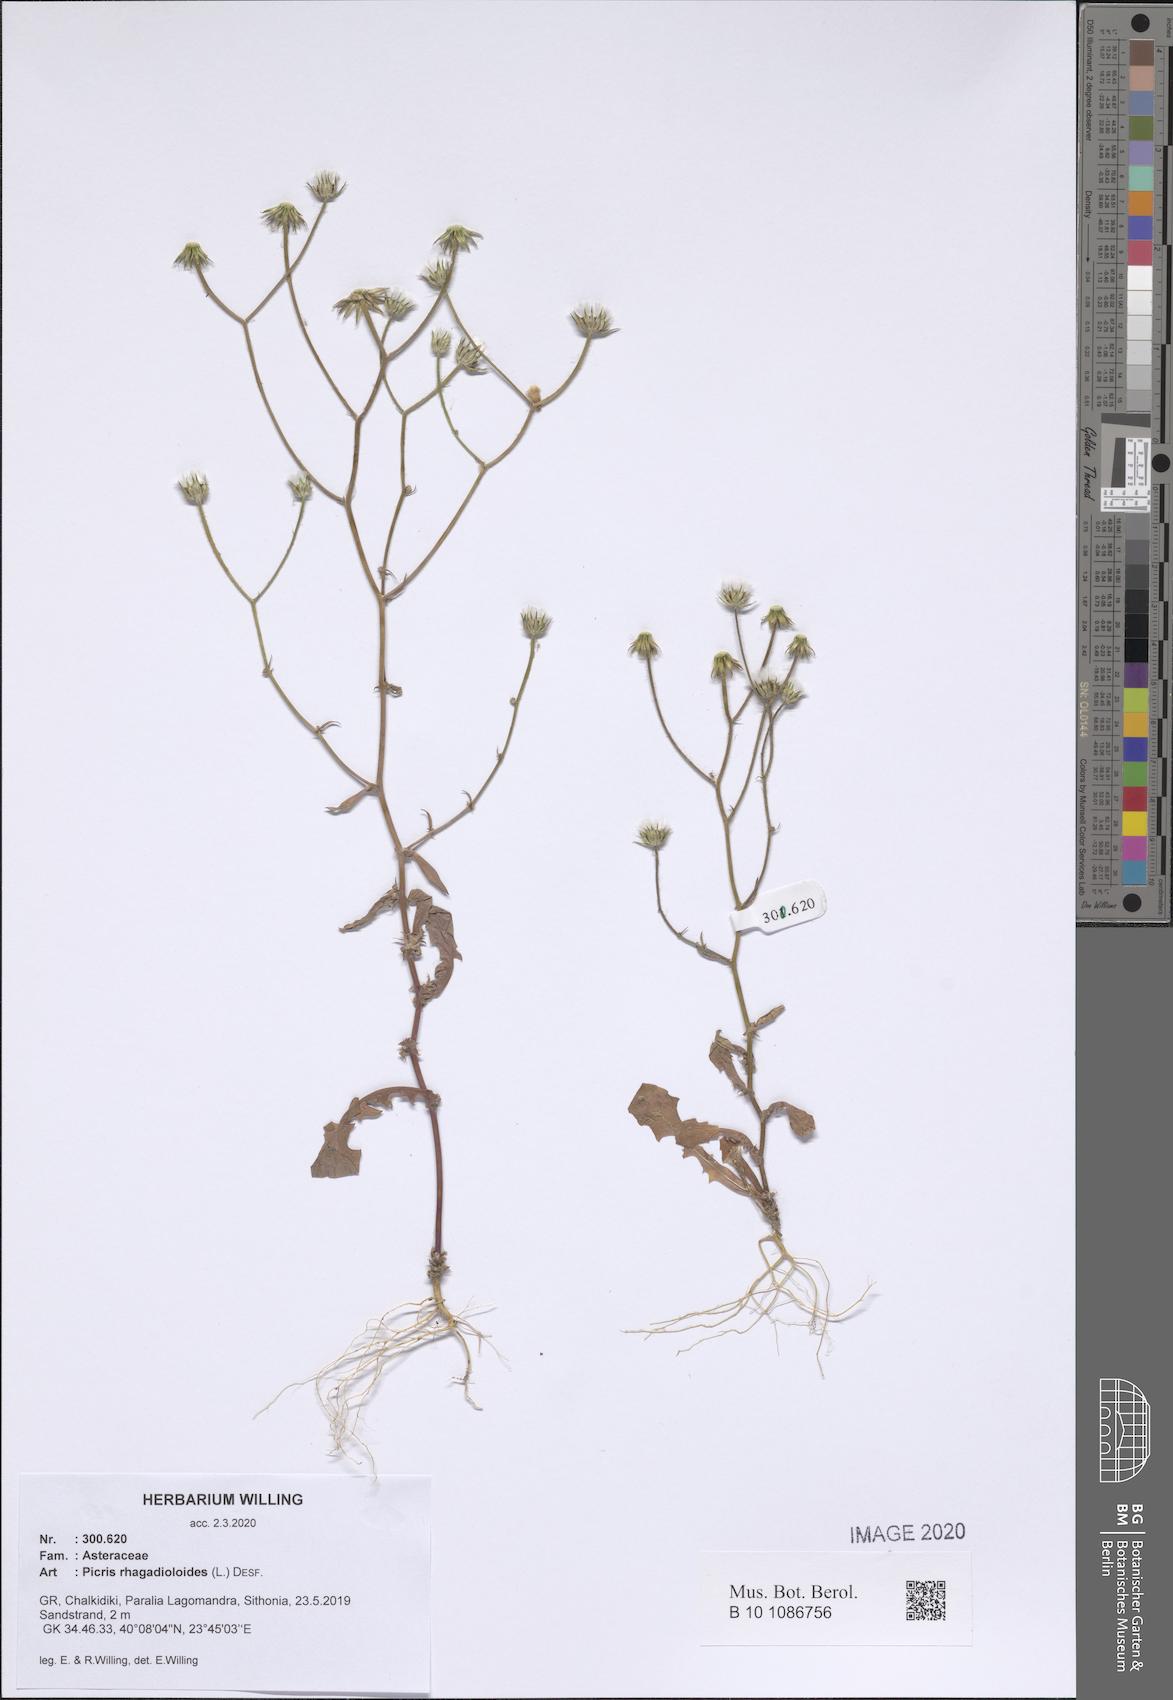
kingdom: Plantae
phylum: Tracheophyta
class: Magnoliopsida
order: Asterales
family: Asteraceae
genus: Picris
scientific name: Picris rhagadioloides
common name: Oxtongue
